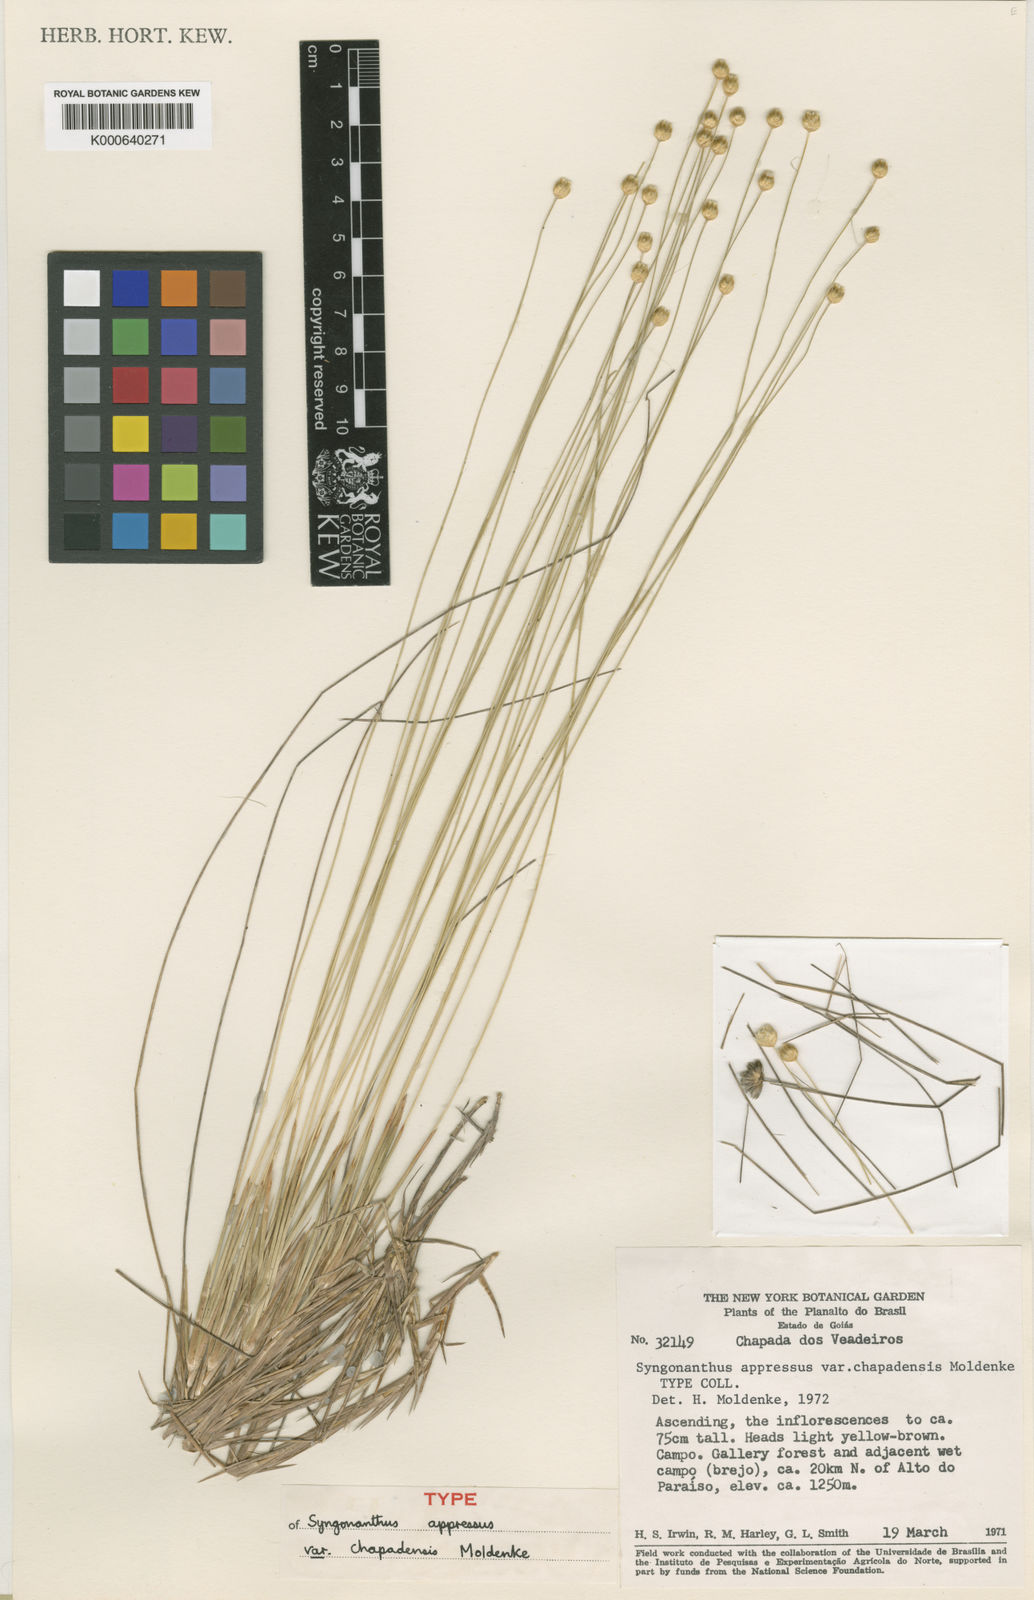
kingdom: Plantae
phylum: Tracheophyta
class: Liliopsida
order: Poales
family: Eriocaulaceae
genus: Syngonanthus
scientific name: Syngonanthus
